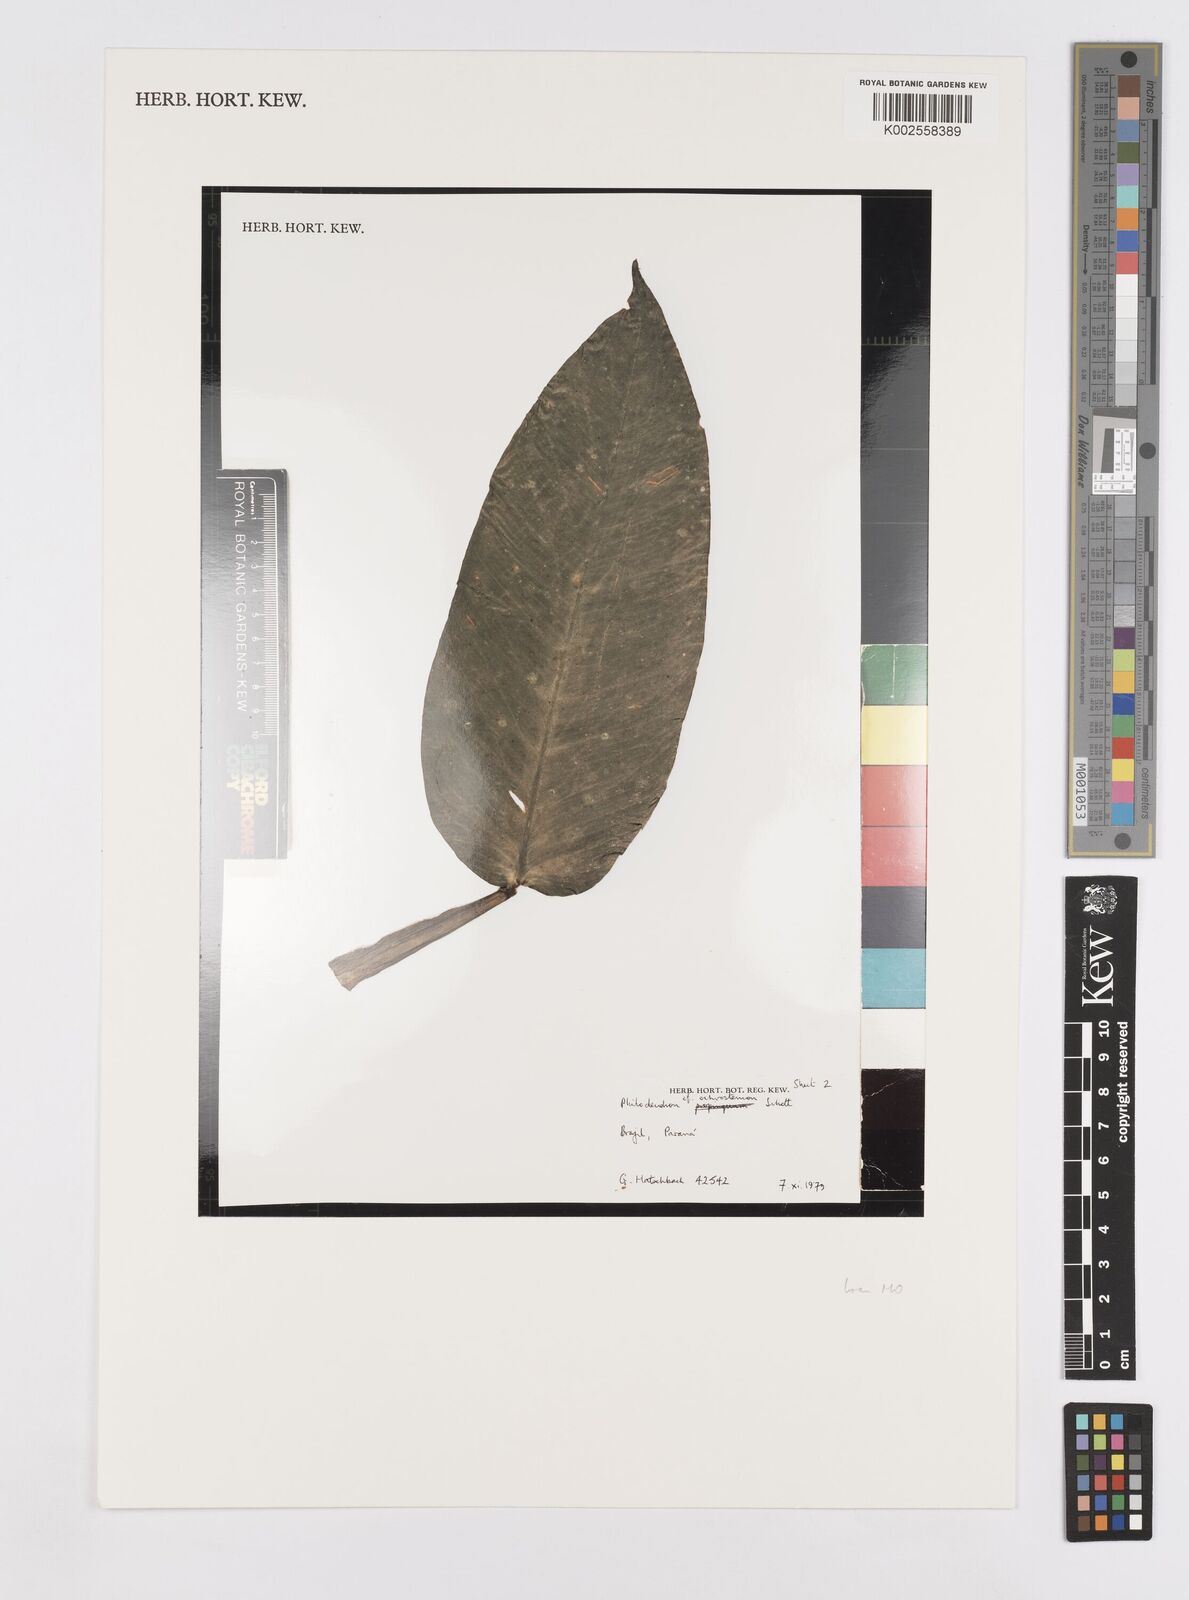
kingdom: Plantae
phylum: Tracheophyta
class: Liliopsida
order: Alismatales
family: Araceae
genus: Philodendron
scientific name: Philodendron ochrostemon
